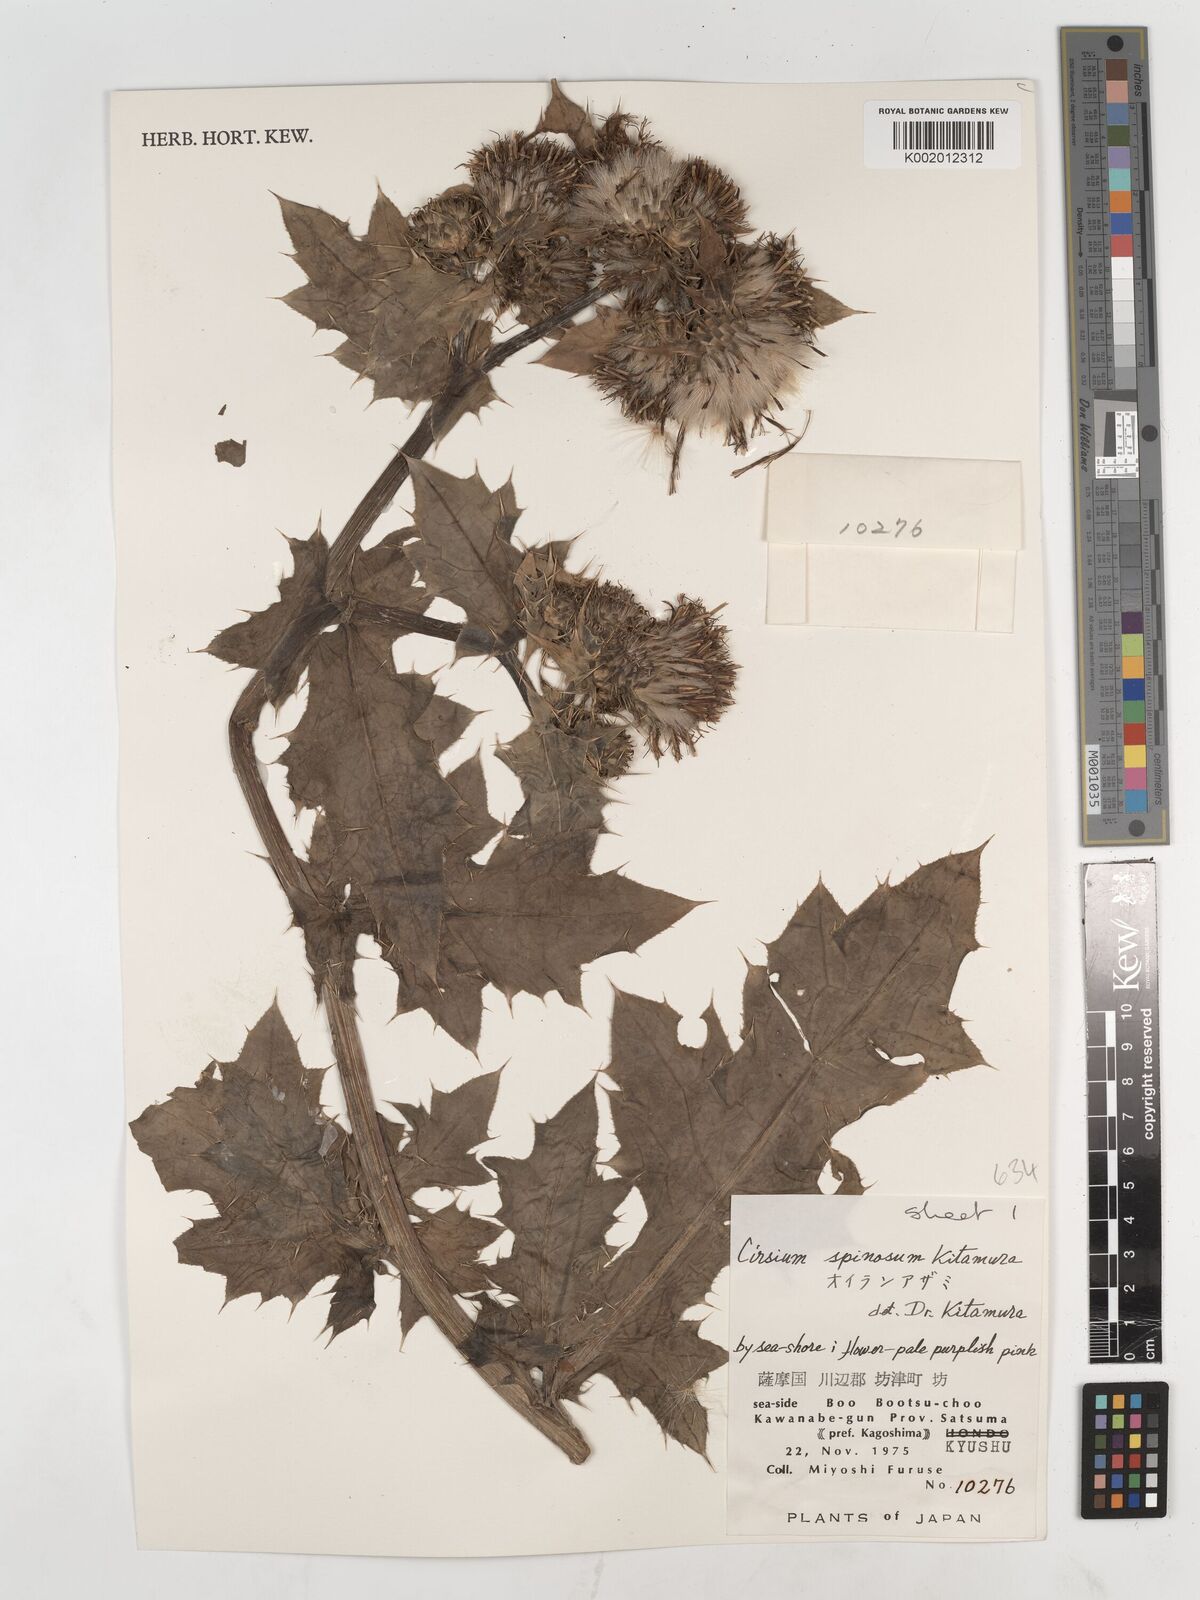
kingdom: Plantae
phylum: Tracheophyta
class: Magnoliopsida
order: Asterales
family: Asteraceae
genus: Cirsium
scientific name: Cirsium spinosum
